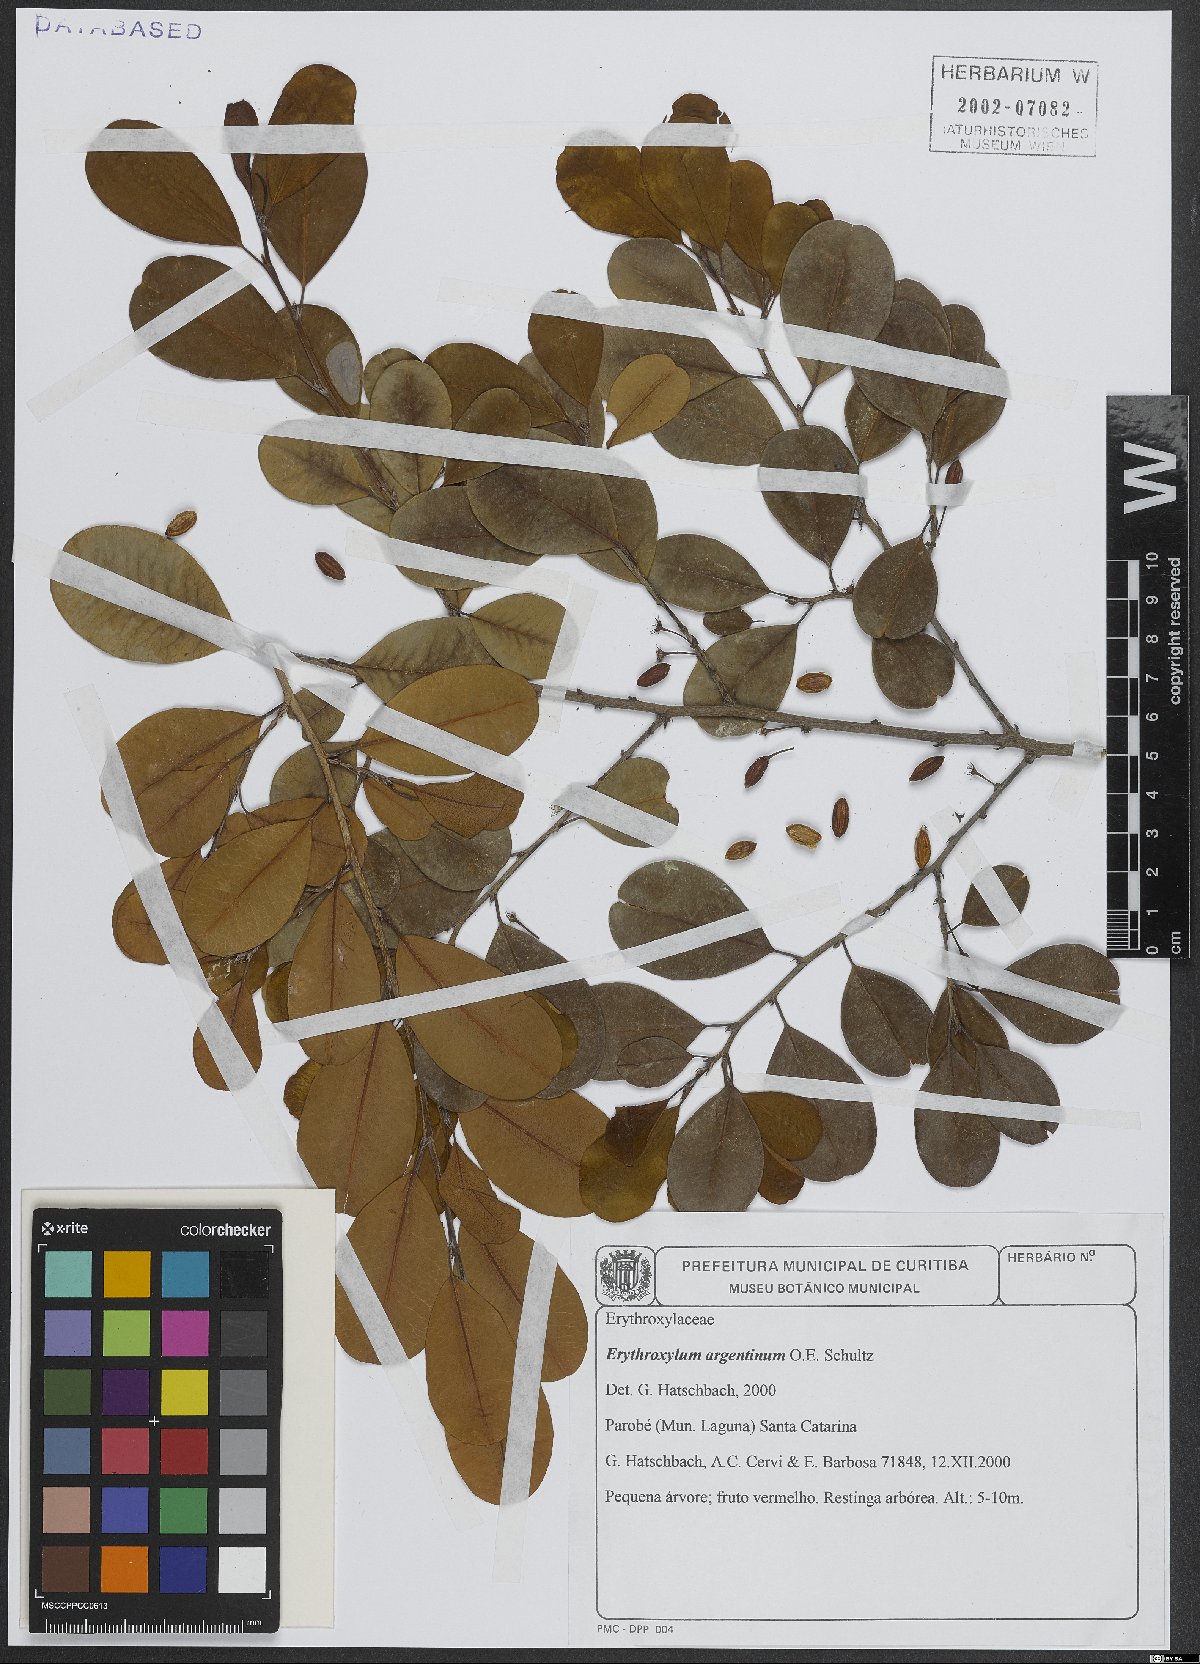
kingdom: Plantae
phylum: Tracheophyta
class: Magnoliopsida
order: Malpighiales
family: Erythroxylaceae
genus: Erythroxylum
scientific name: Erythroxylum argentinum
